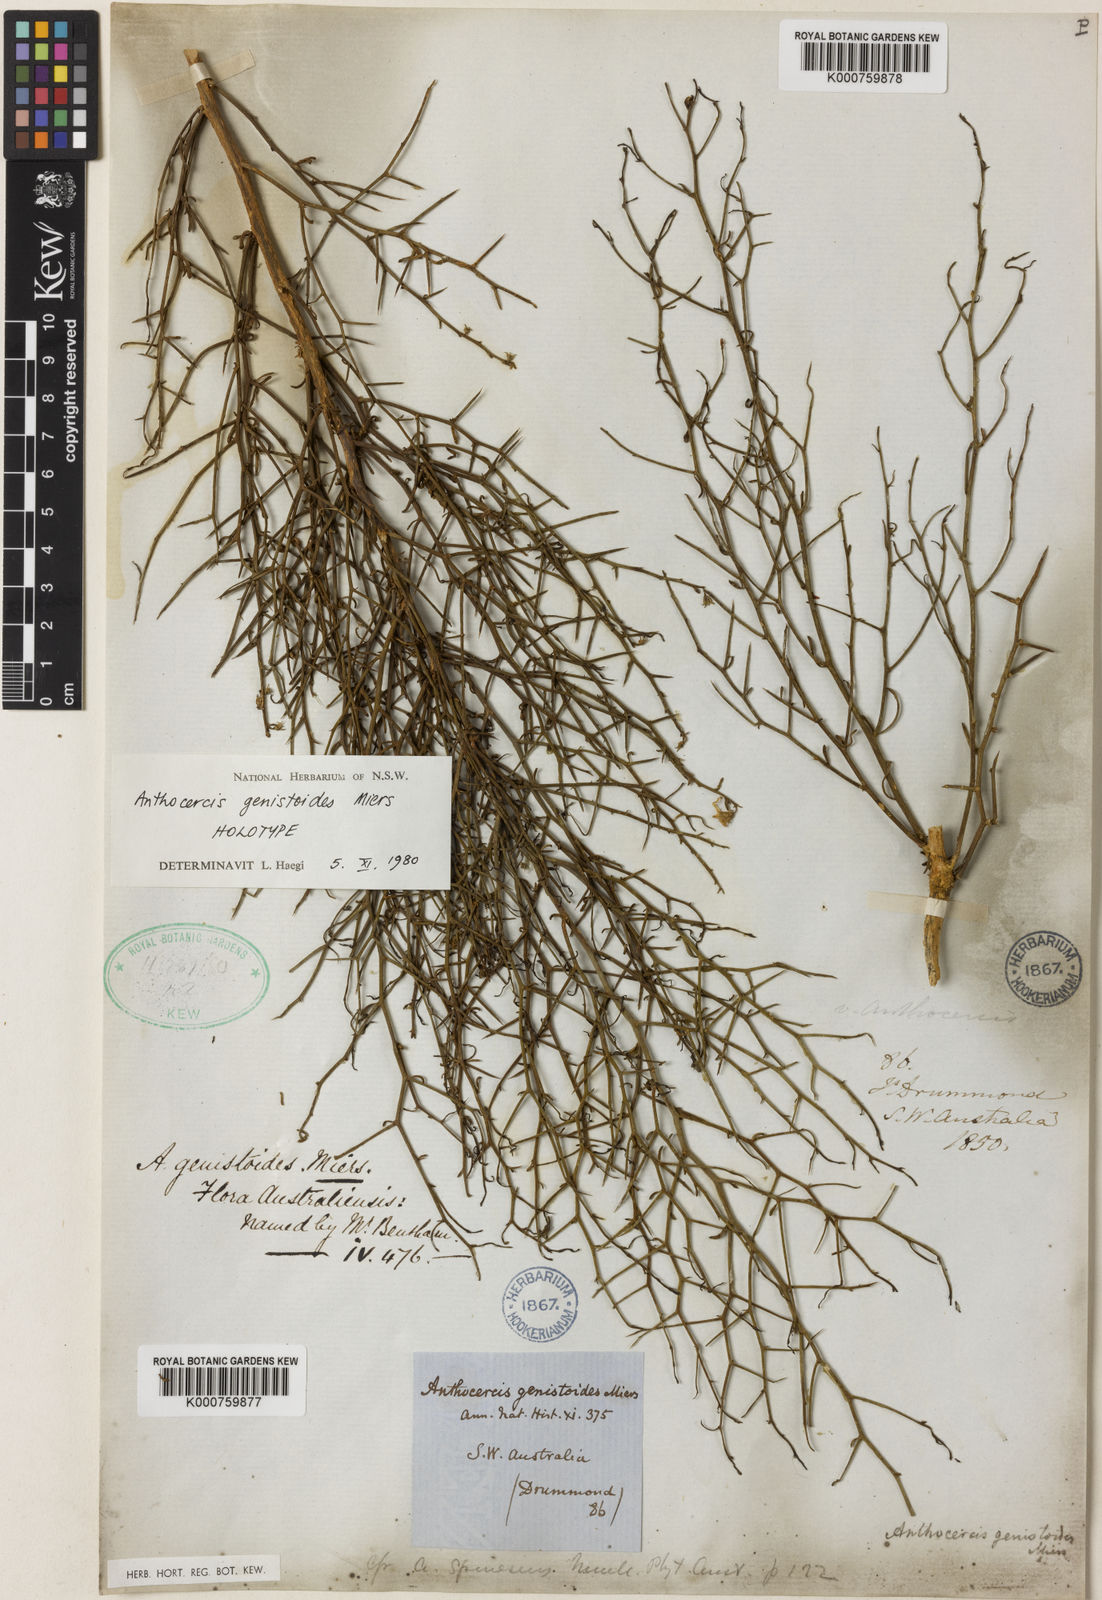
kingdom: Plantae
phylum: Tracheophyta
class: Magnoliopsida
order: Solanales
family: Solanaceae
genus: Anthocercis
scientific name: Anthocercis genistoides
